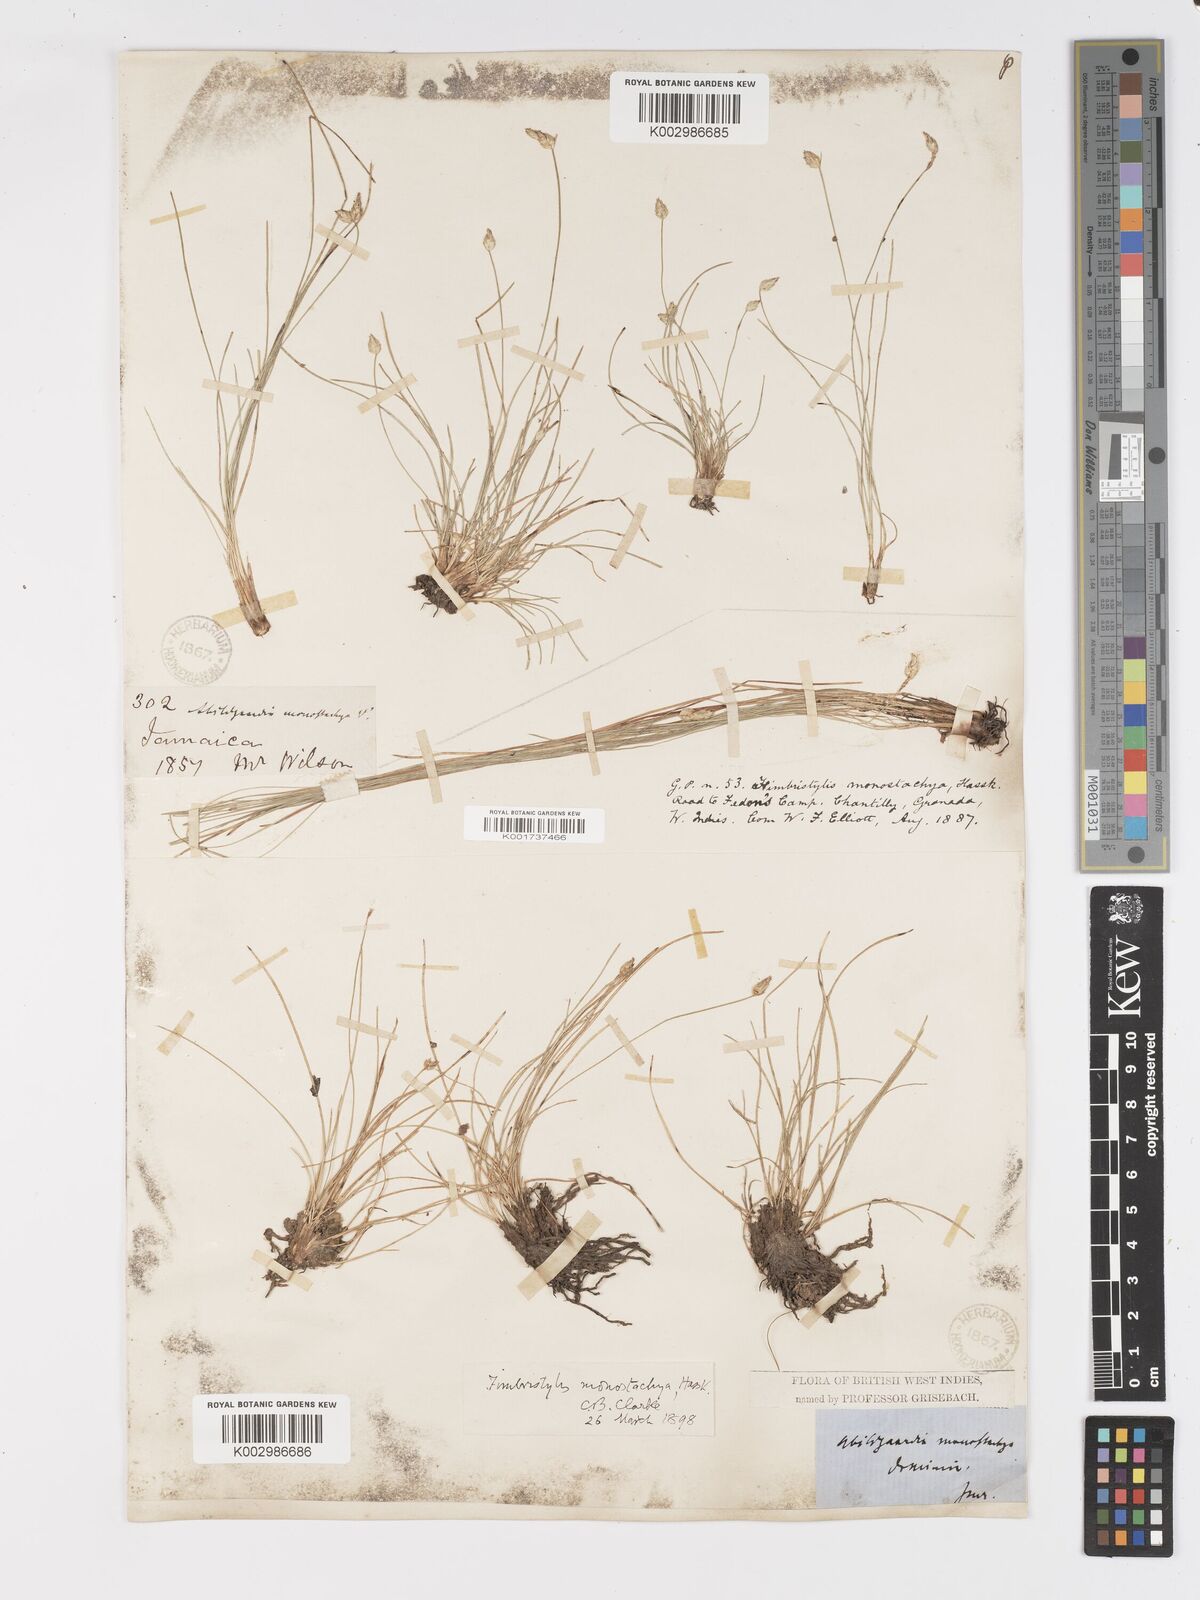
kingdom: Plantae
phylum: Tracheophyta
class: Liliopsida
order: Poales
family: Cyperaceae
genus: Abildgaardia
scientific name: Abildgaardia ovata
